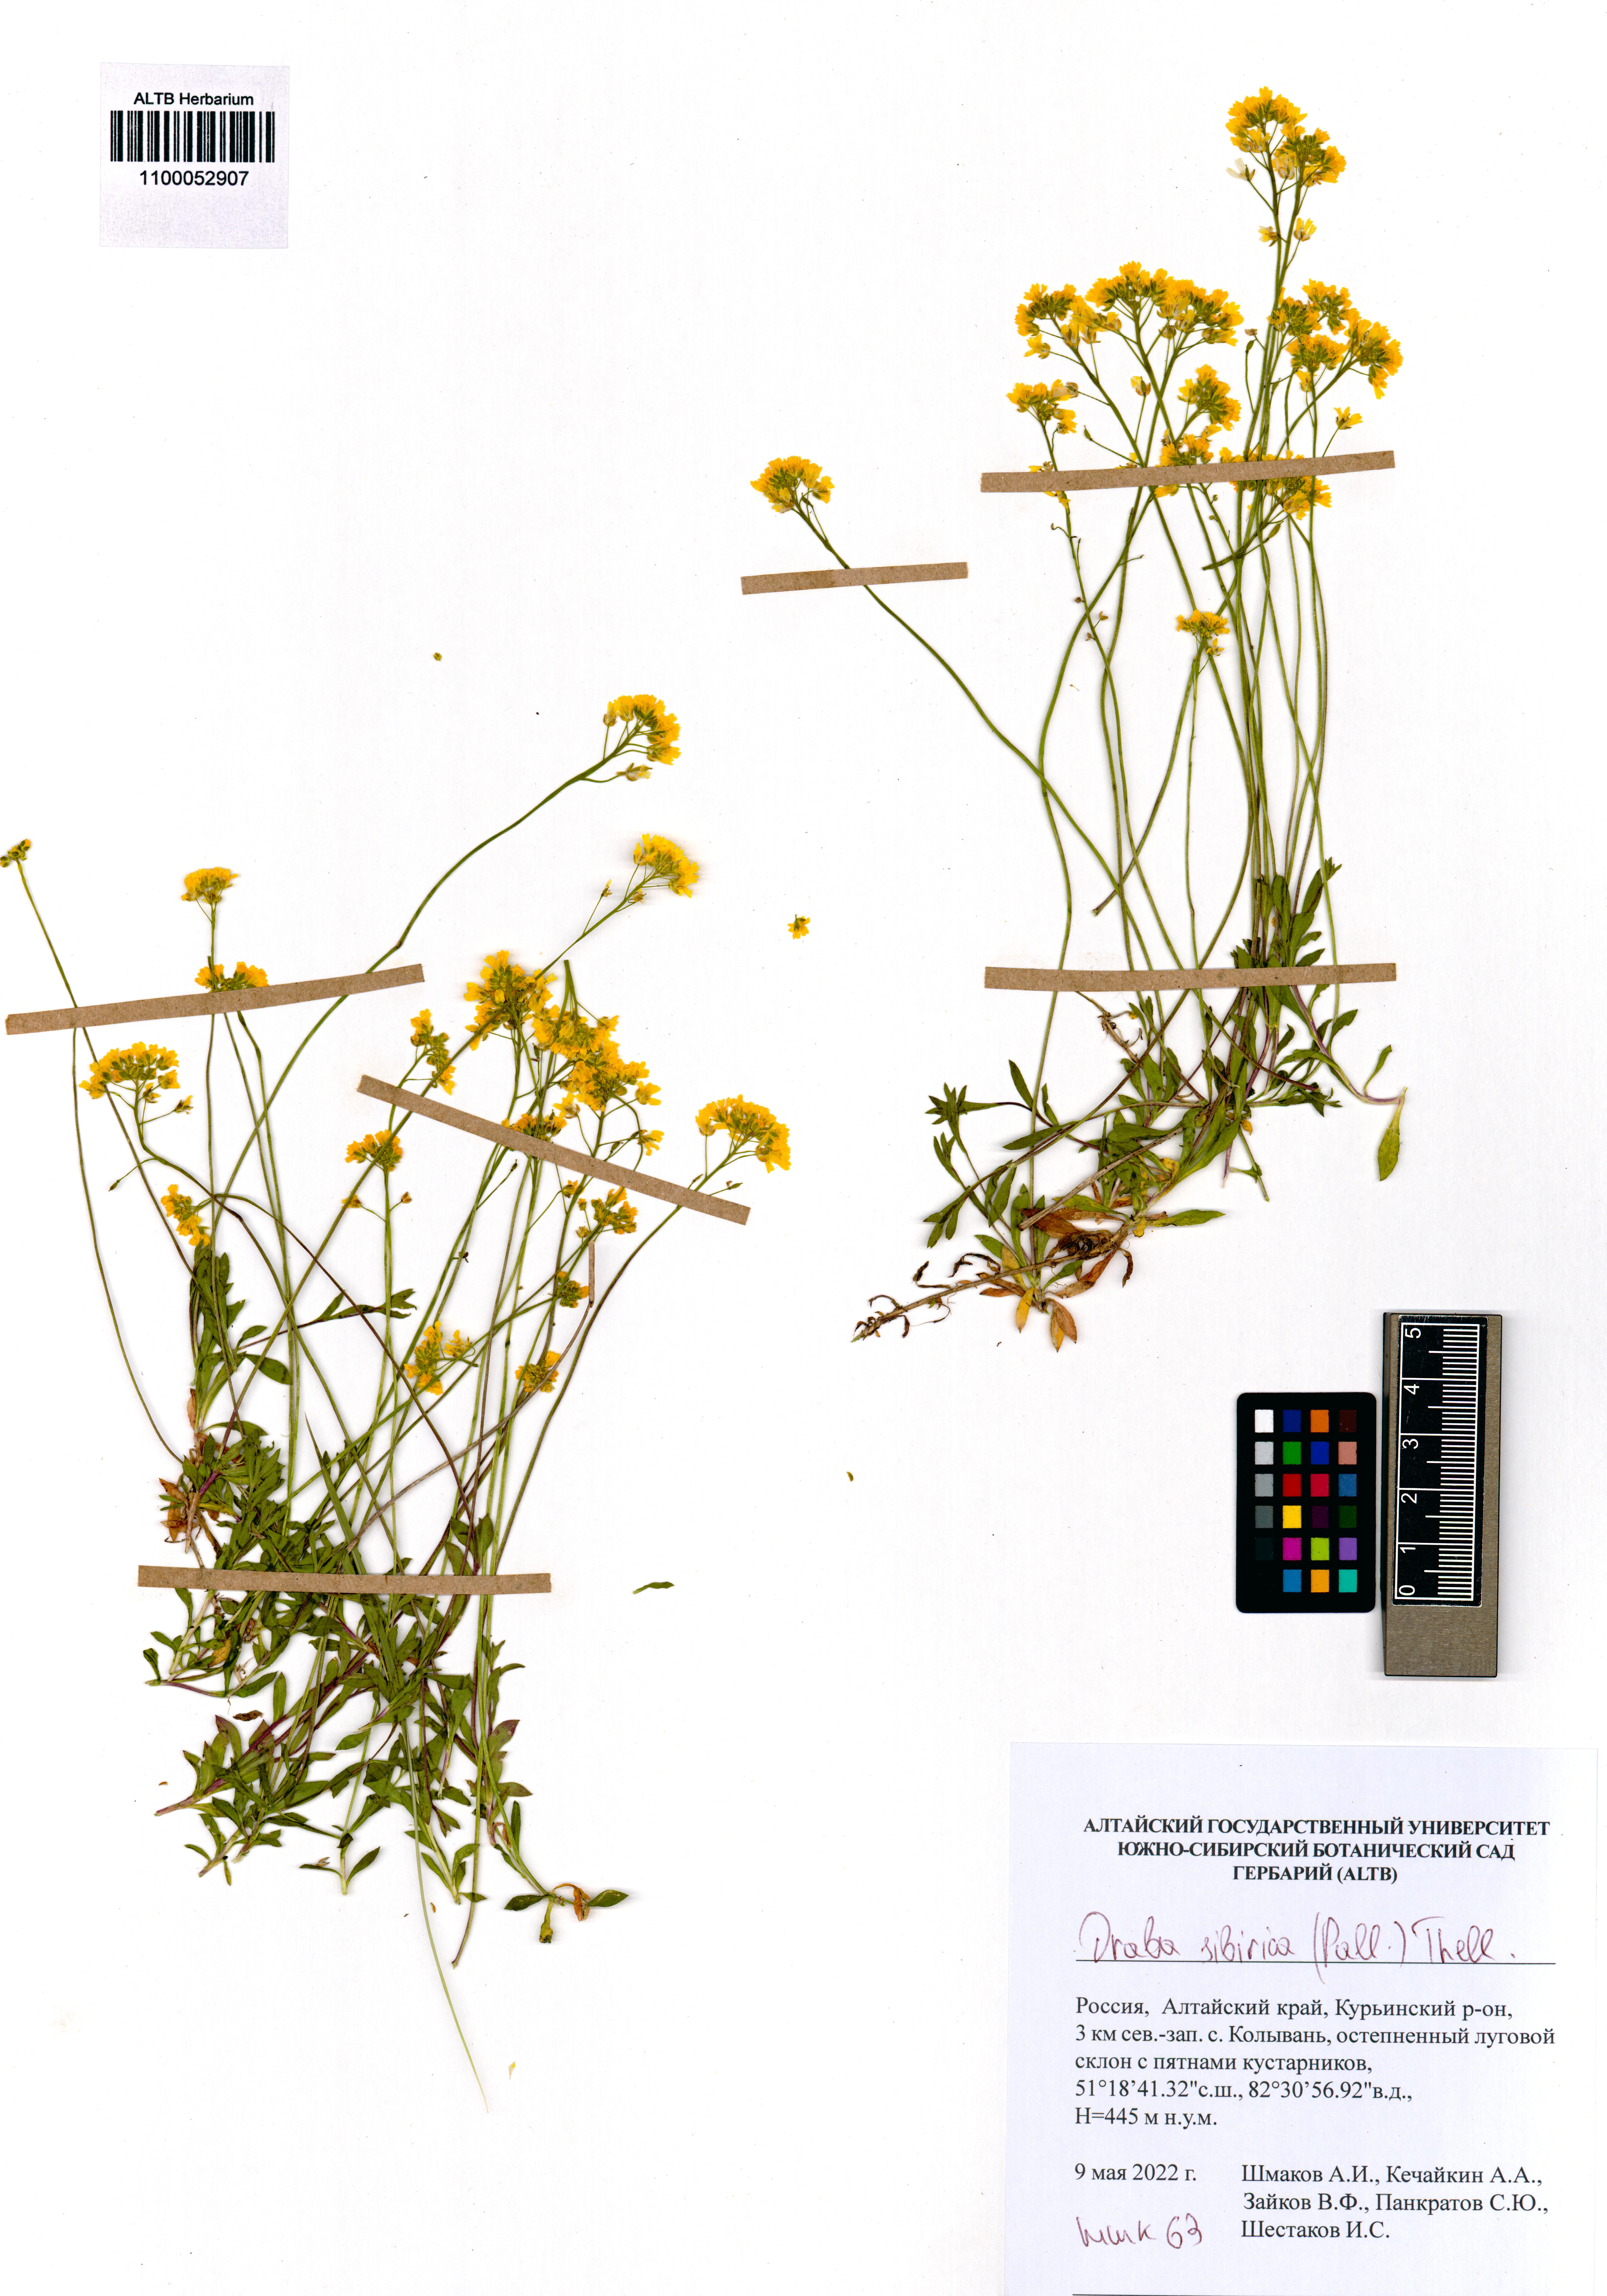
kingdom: Plantae
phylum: Tracheophyta
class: Magnoliopsida
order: Brassicales
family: Brassicaceae
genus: Draba
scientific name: Draba sibirica
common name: Siberian draba
